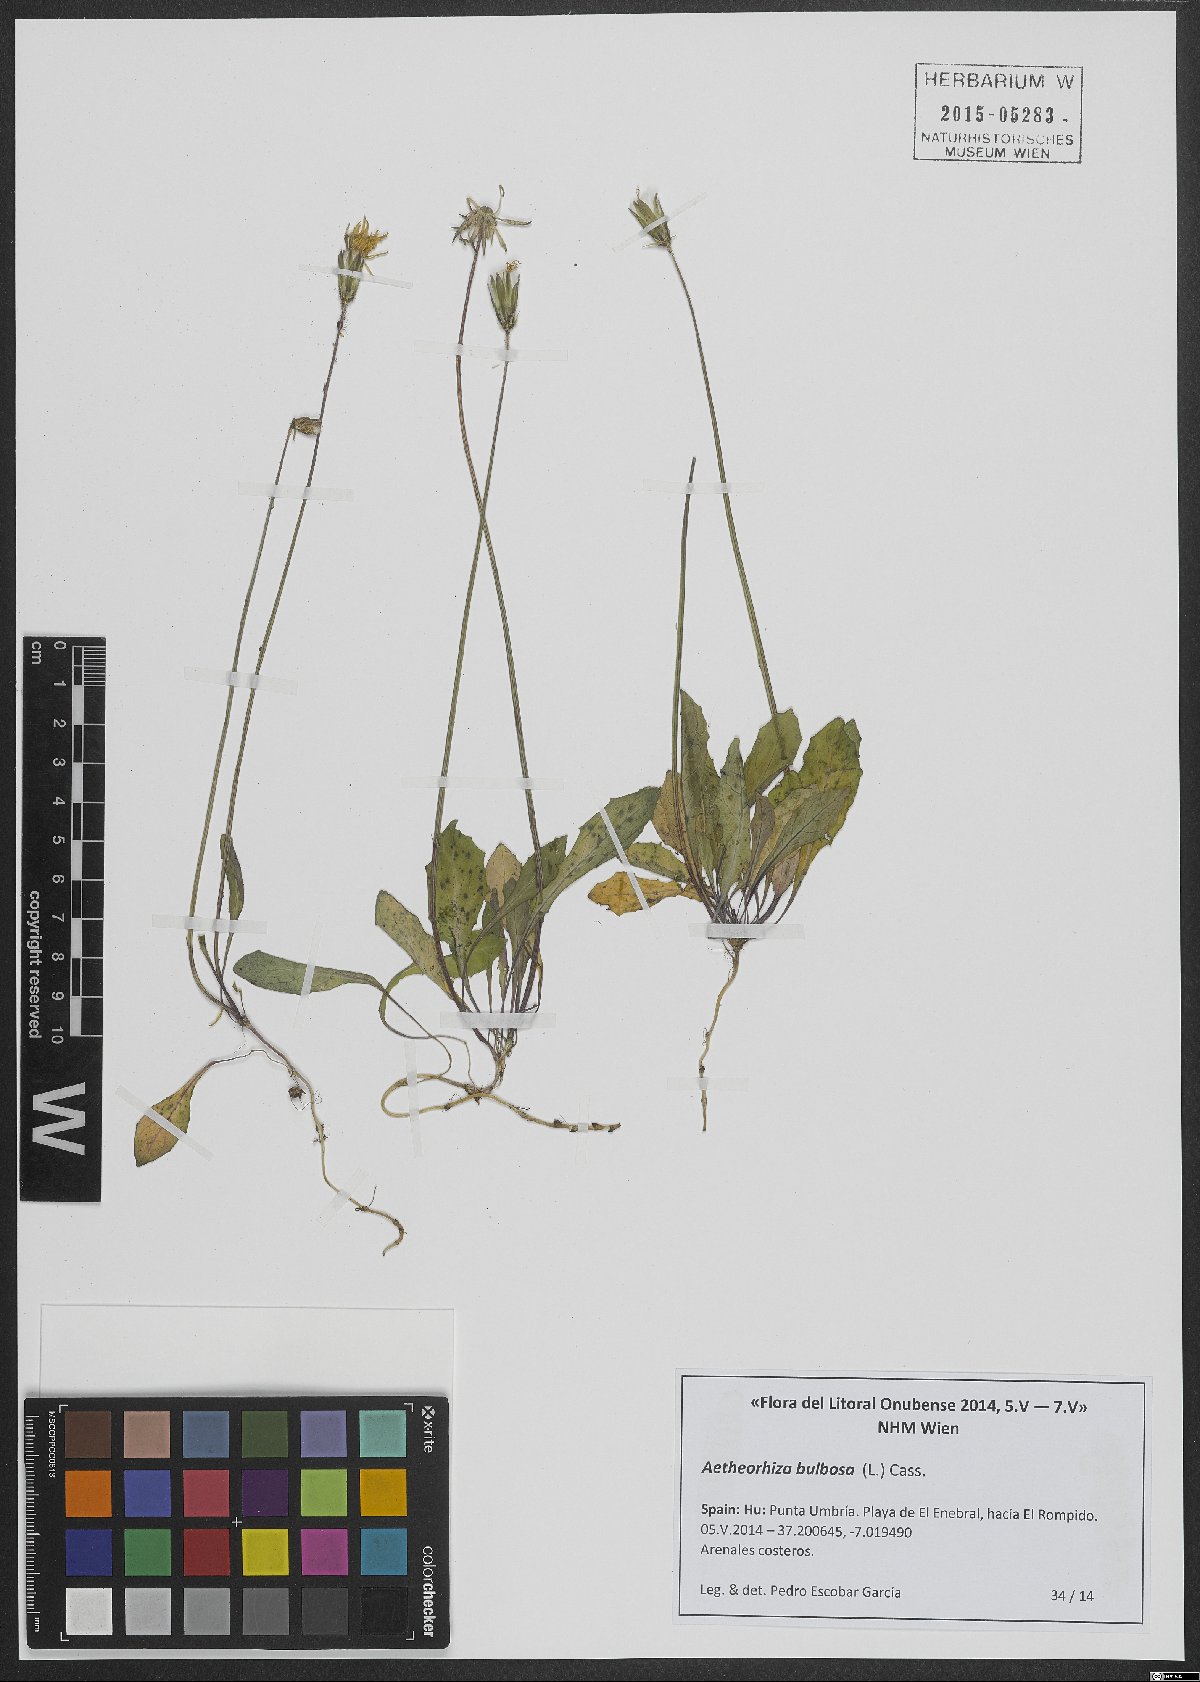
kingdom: Plantae
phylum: Tracheophyta
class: Magnoliopsida
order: Asterales
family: Asteraceae
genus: Aetheorhiza
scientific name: Aetheorhiza bulbosa
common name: Tuberous hawk's-beard
